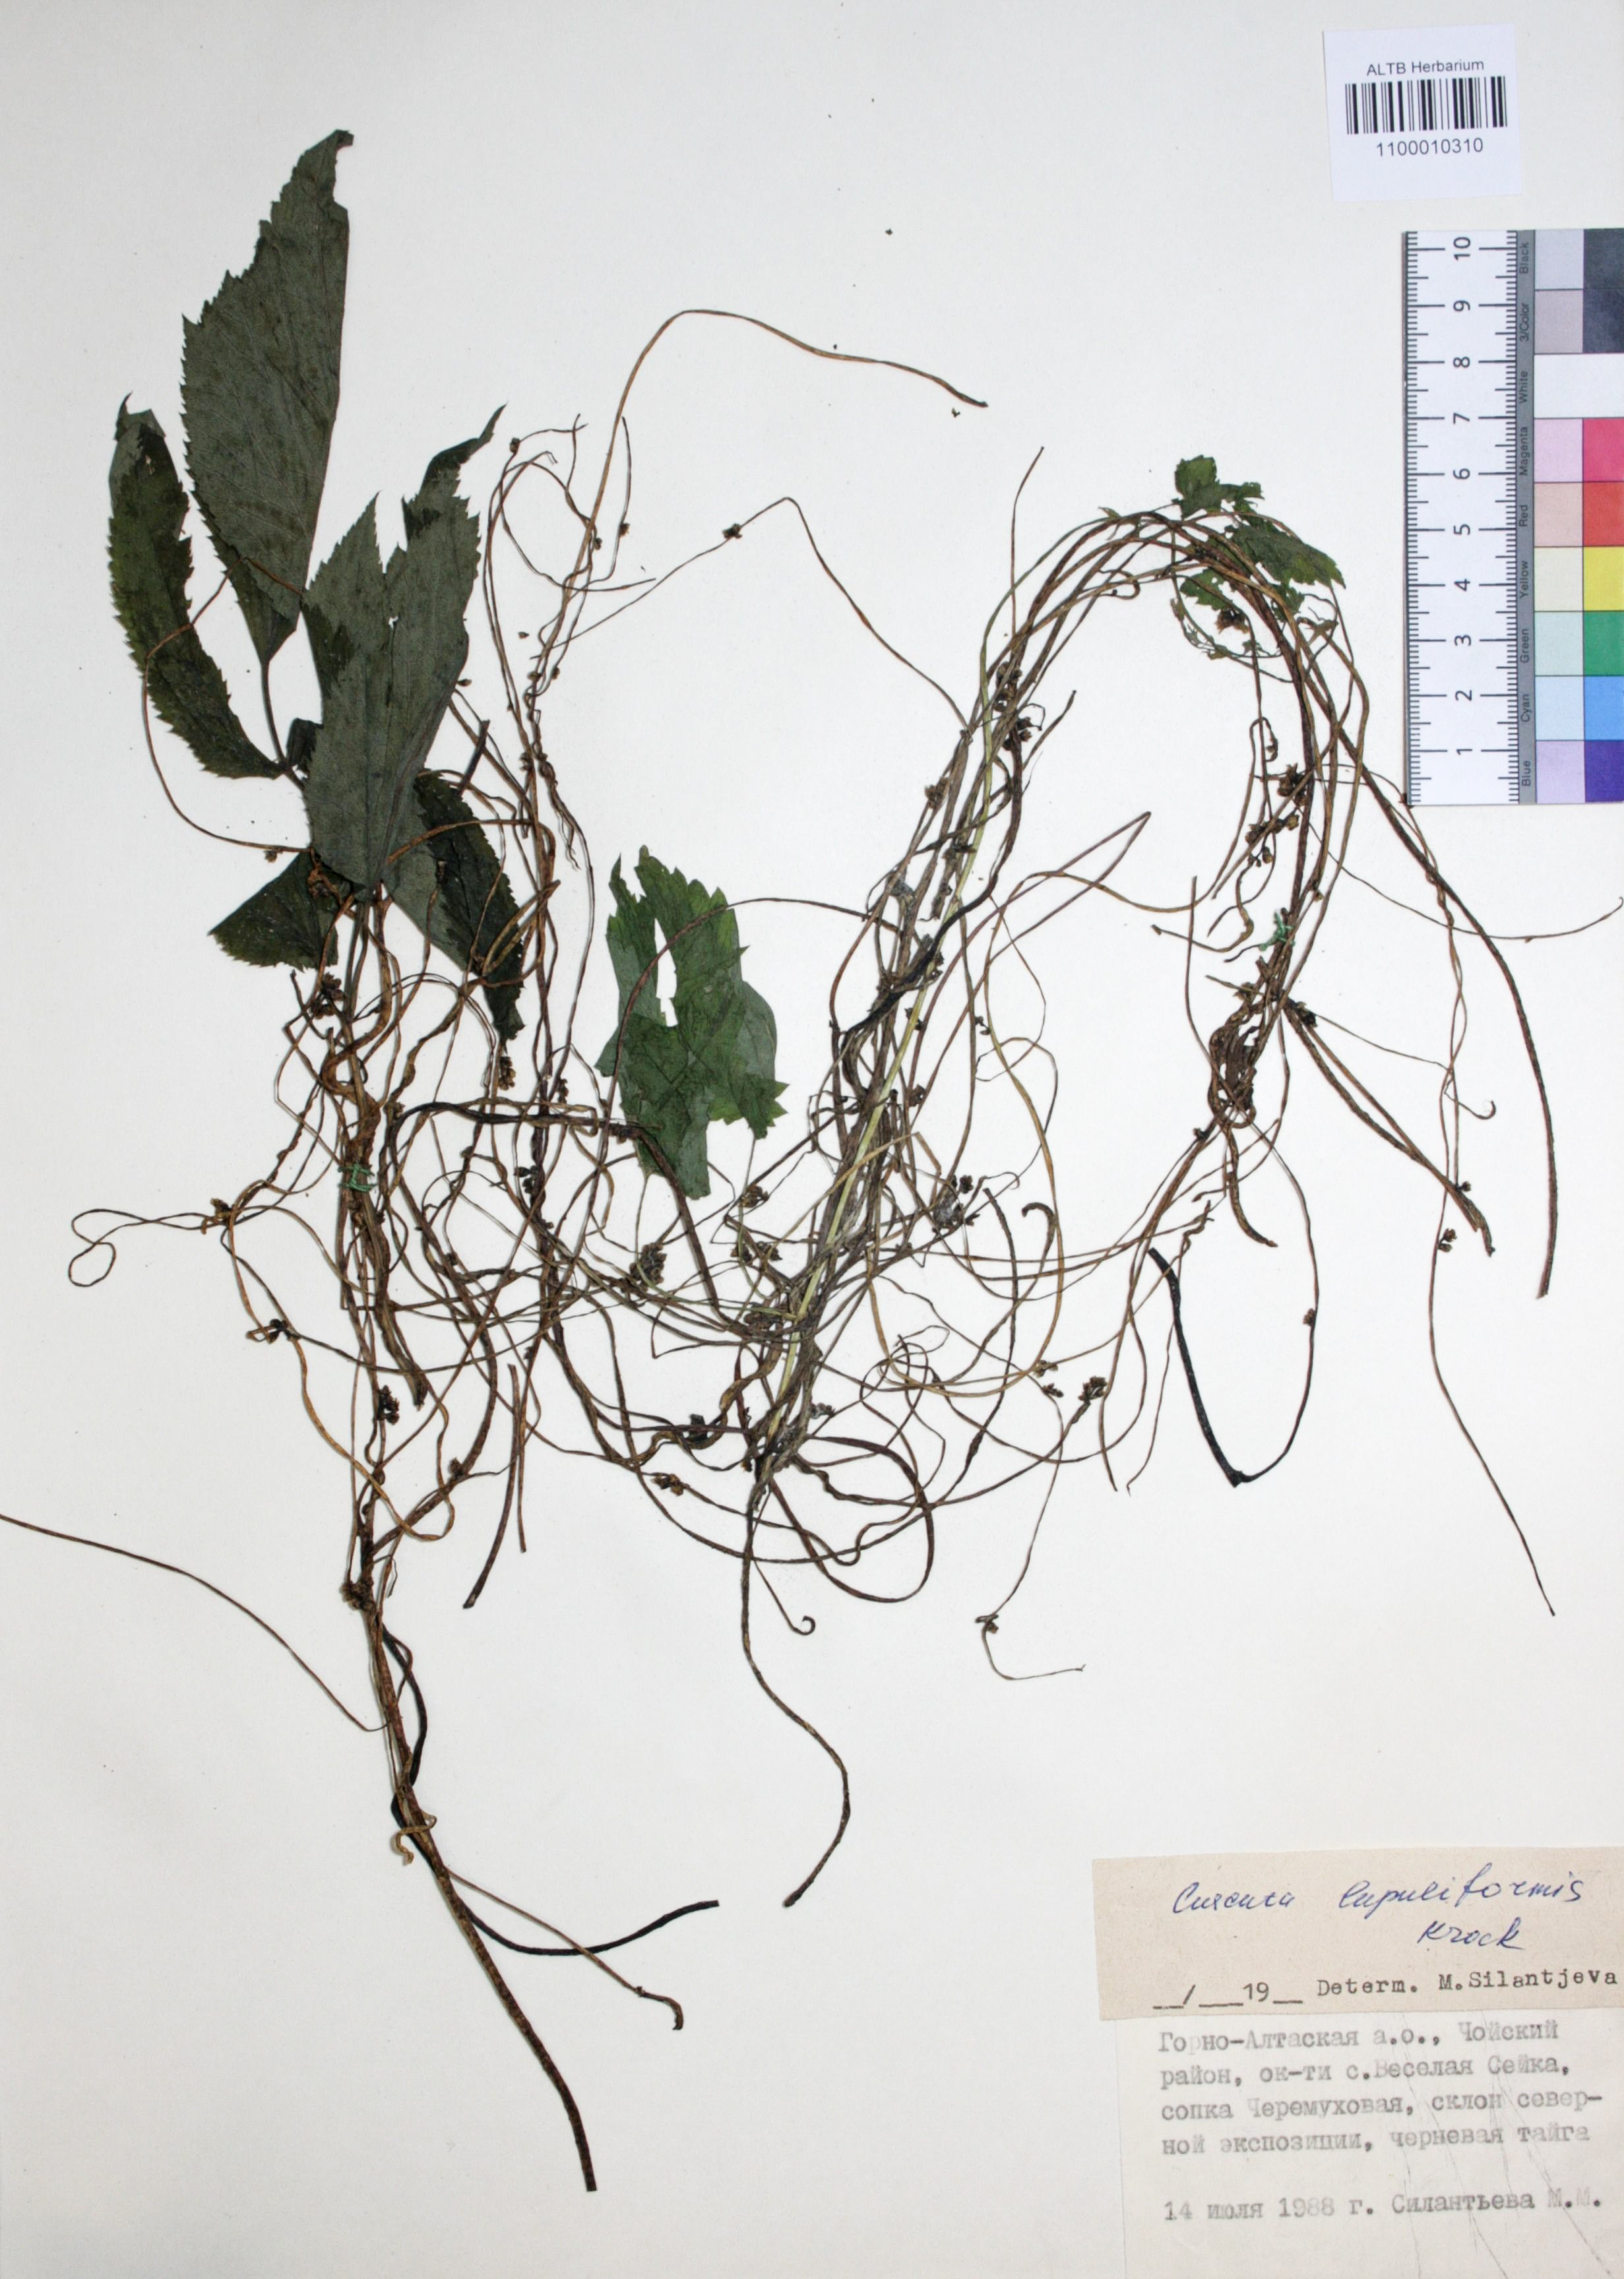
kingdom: Plantae
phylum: Tracheophyta
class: Magnoliopsida
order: Solanales
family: Convolvulaceae
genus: Cuscuta
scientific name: Cuscuta lupuliformis
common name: Hop dodder
